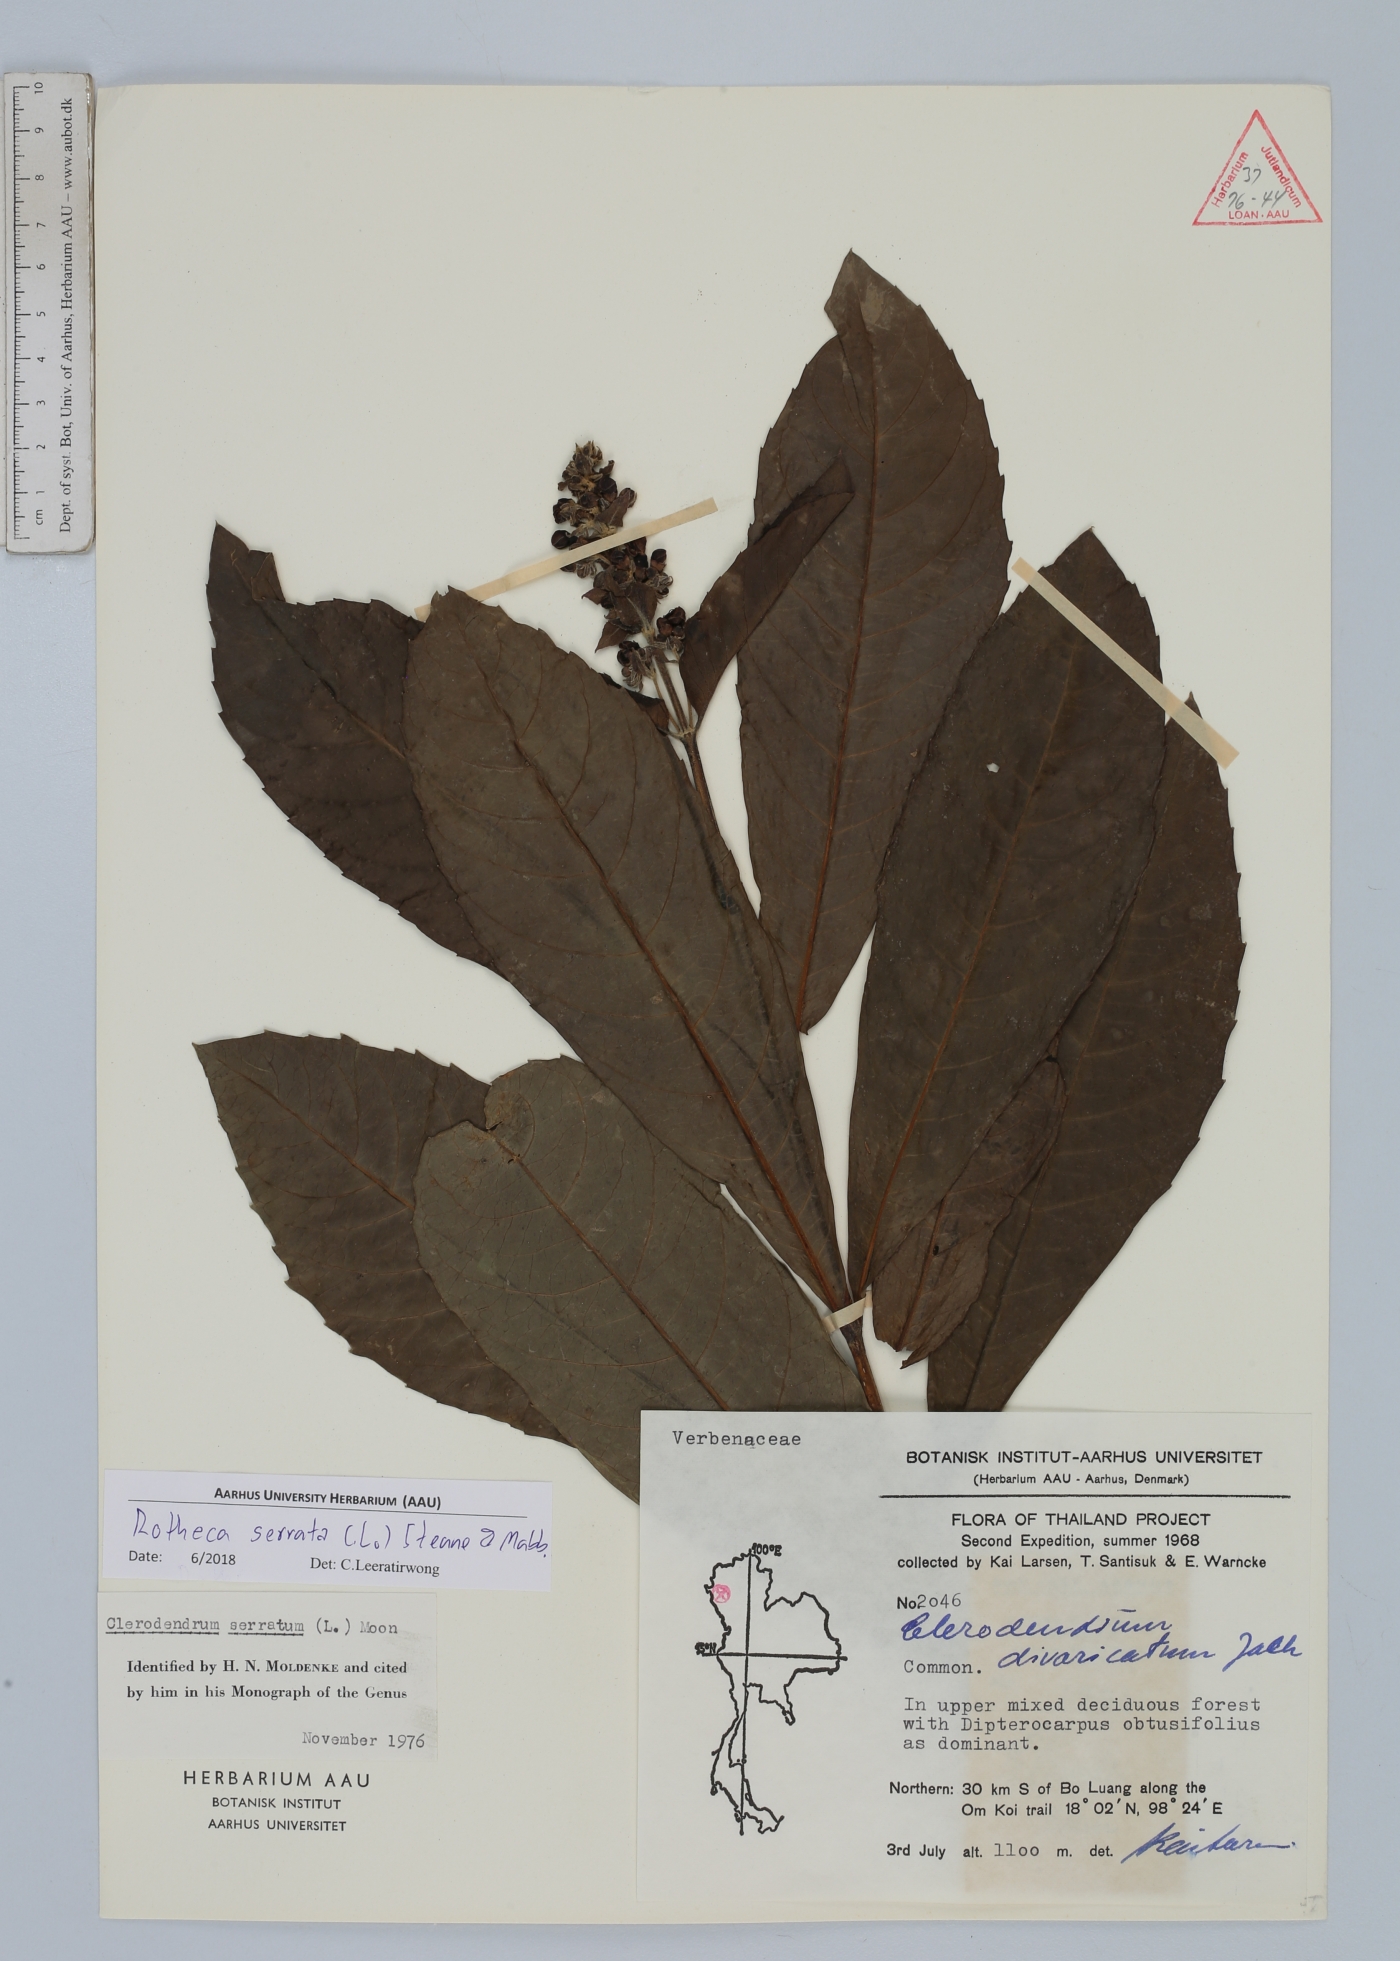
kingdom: Plantae
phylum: Tracheophyta
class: Magnoliopsida
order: Lamiales
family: Lamiaceae
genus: Rotheca
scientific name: Rotheca serrata
